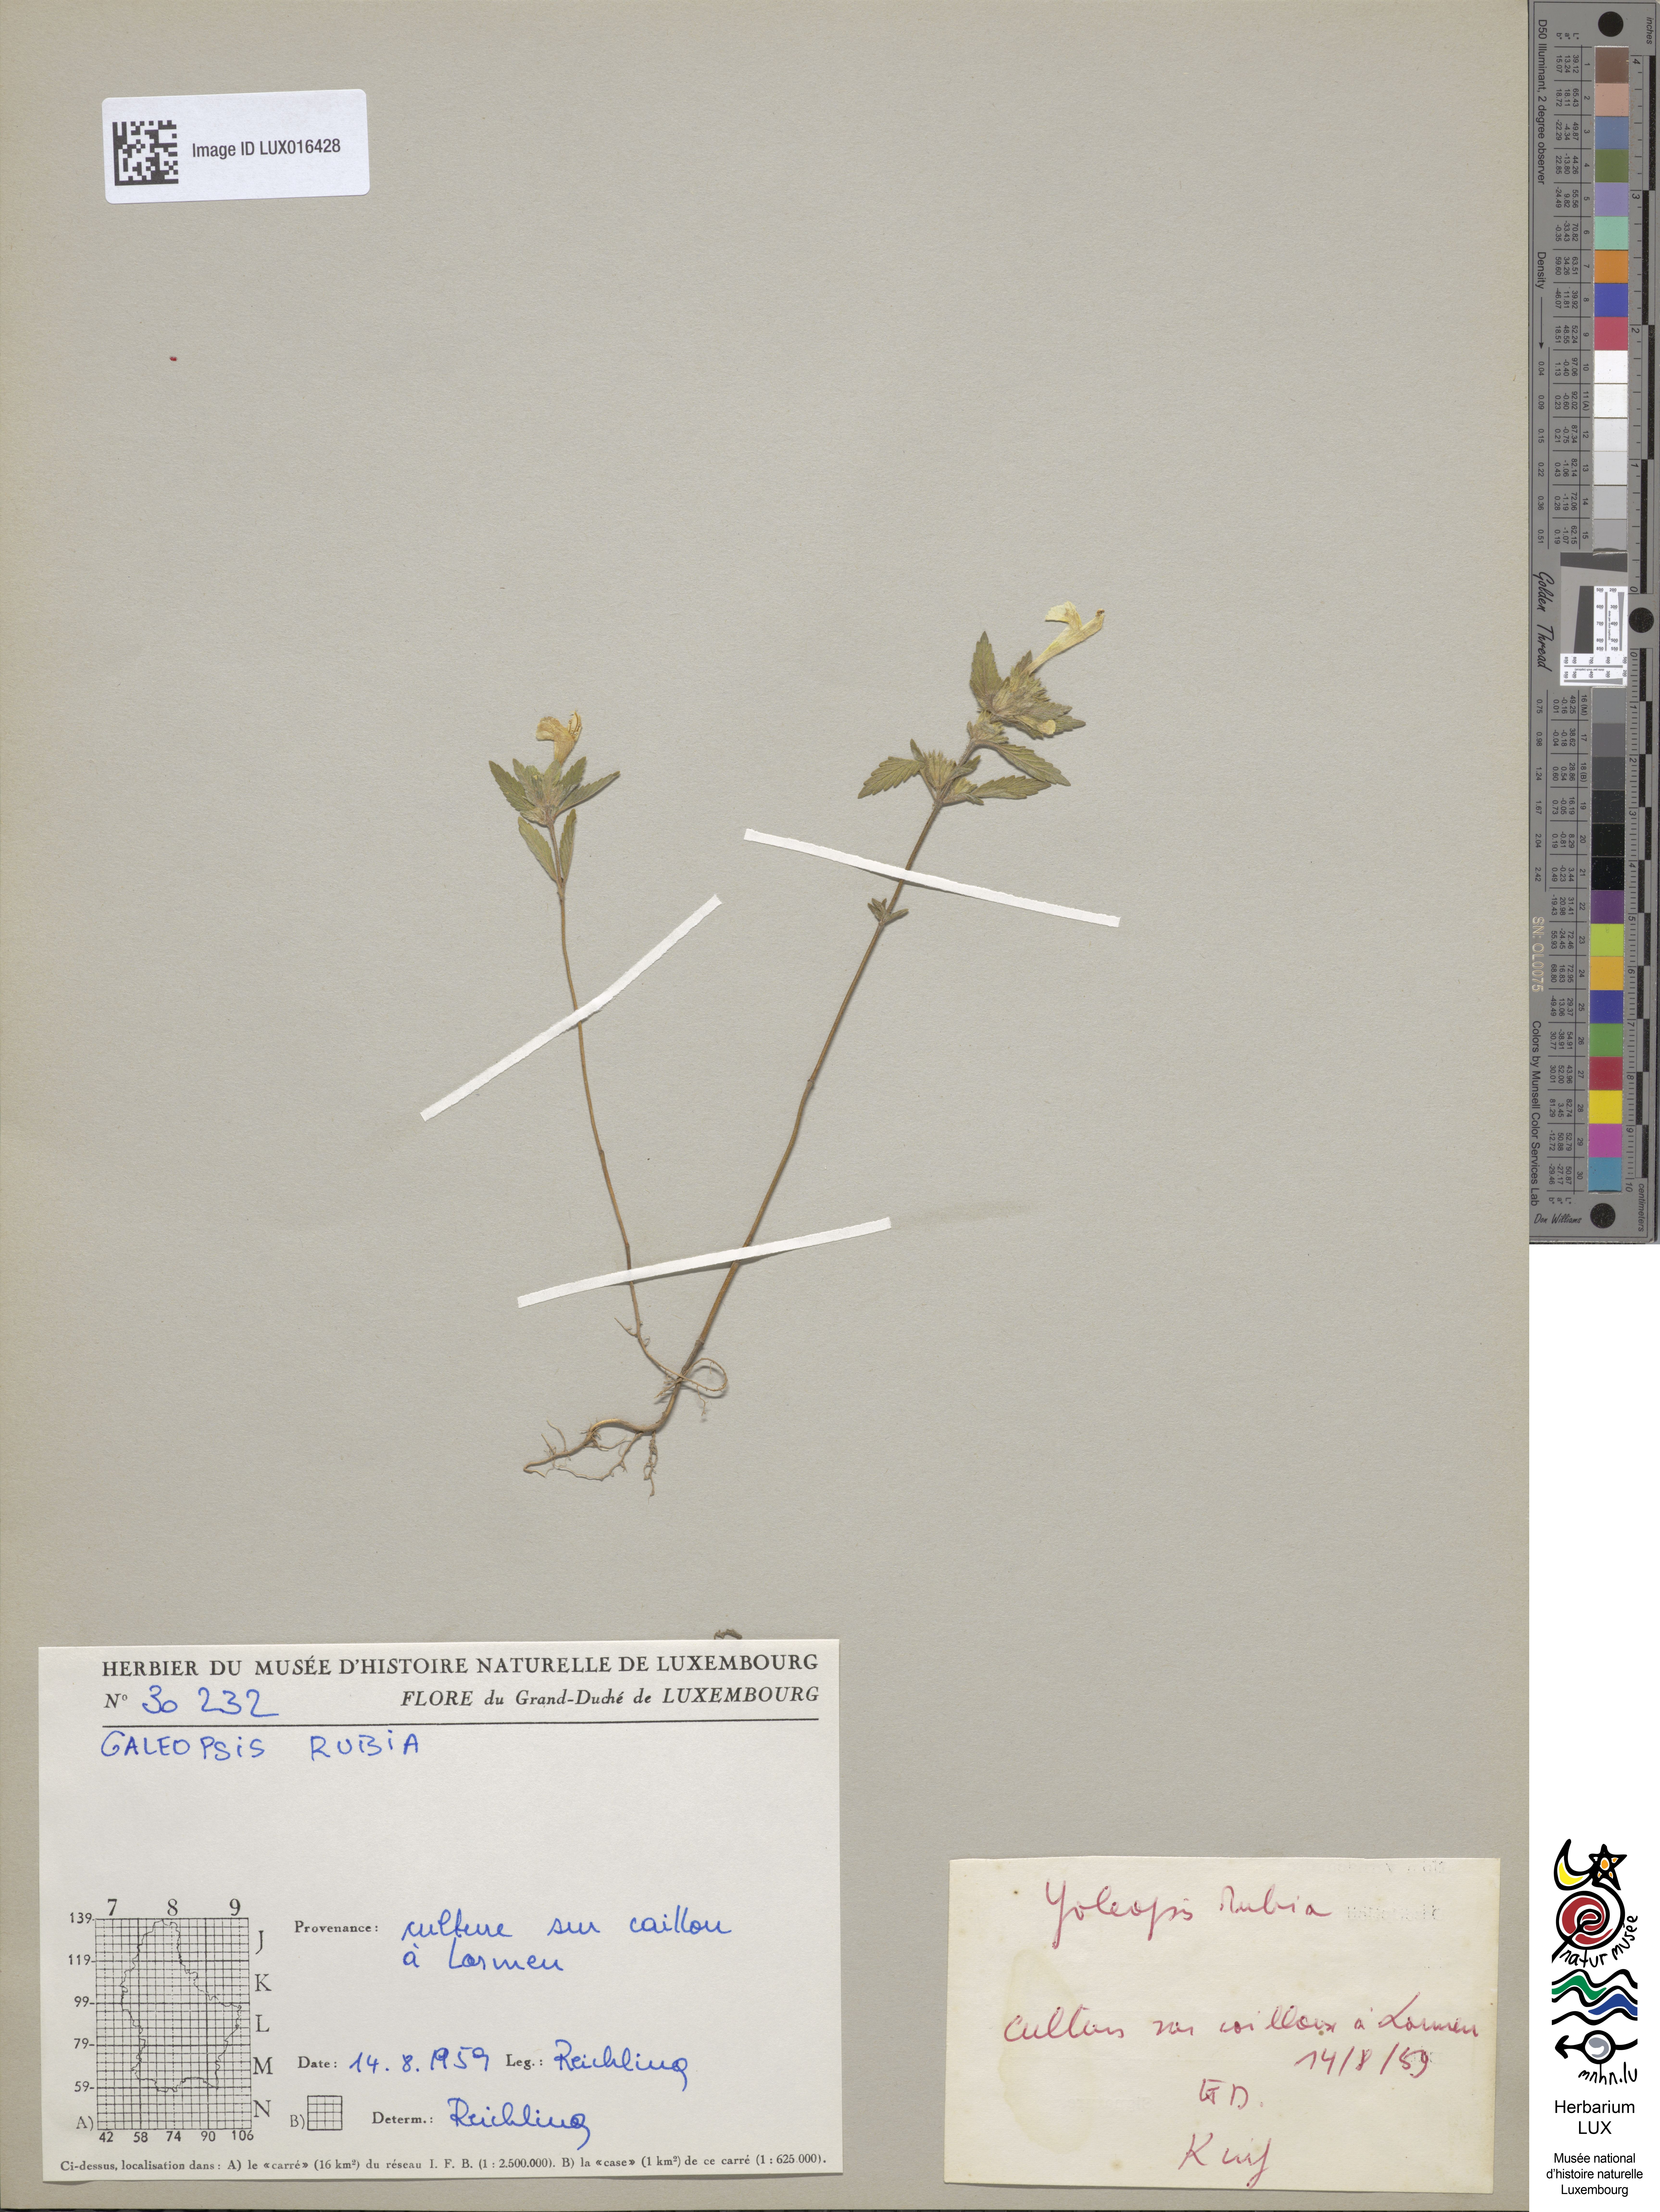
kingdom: Plantae
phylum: Tracheophyta
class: Magnoliopsida
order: Lamiales
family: Lamiaceae
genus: Galeopsis
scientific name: Galeopsis
